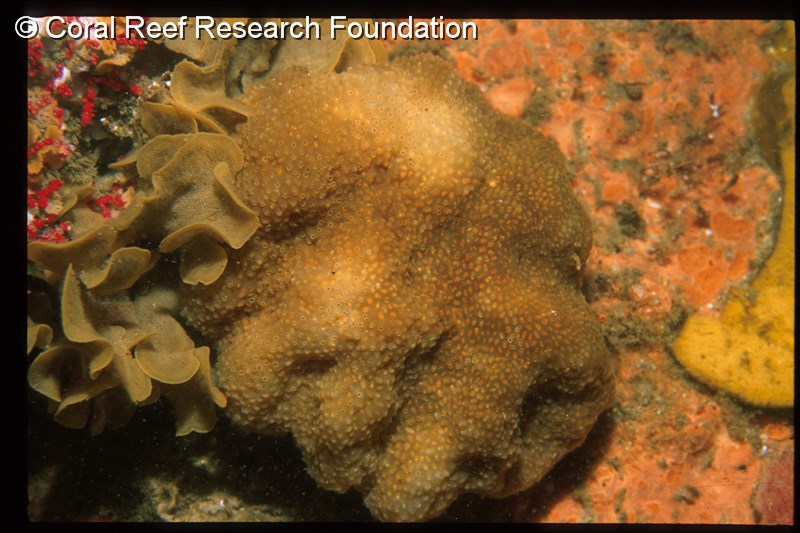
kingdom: Animalia
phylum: Chordata
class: Ascidiacea
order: Aplousobranchia
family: Pseudodistomidae
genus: Pseudodistoma
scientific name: Pseudodistoma
